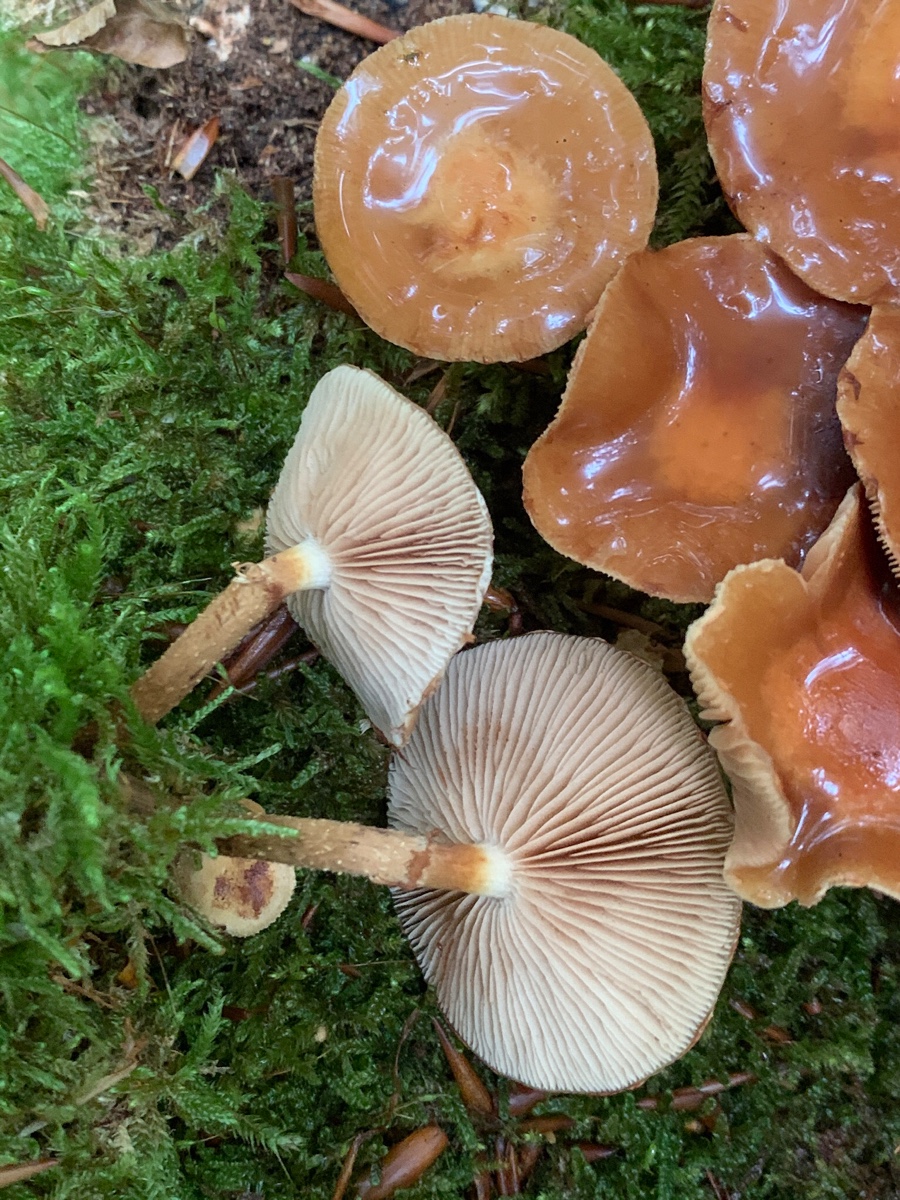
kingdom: Fungi
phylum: Basidiomycota
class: Agaricomycetes
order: Agaricales
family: Strophariaceae
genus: Kuehneromyces
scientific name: Kuehneromyces mutabilis
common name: foranderlig skælhat
